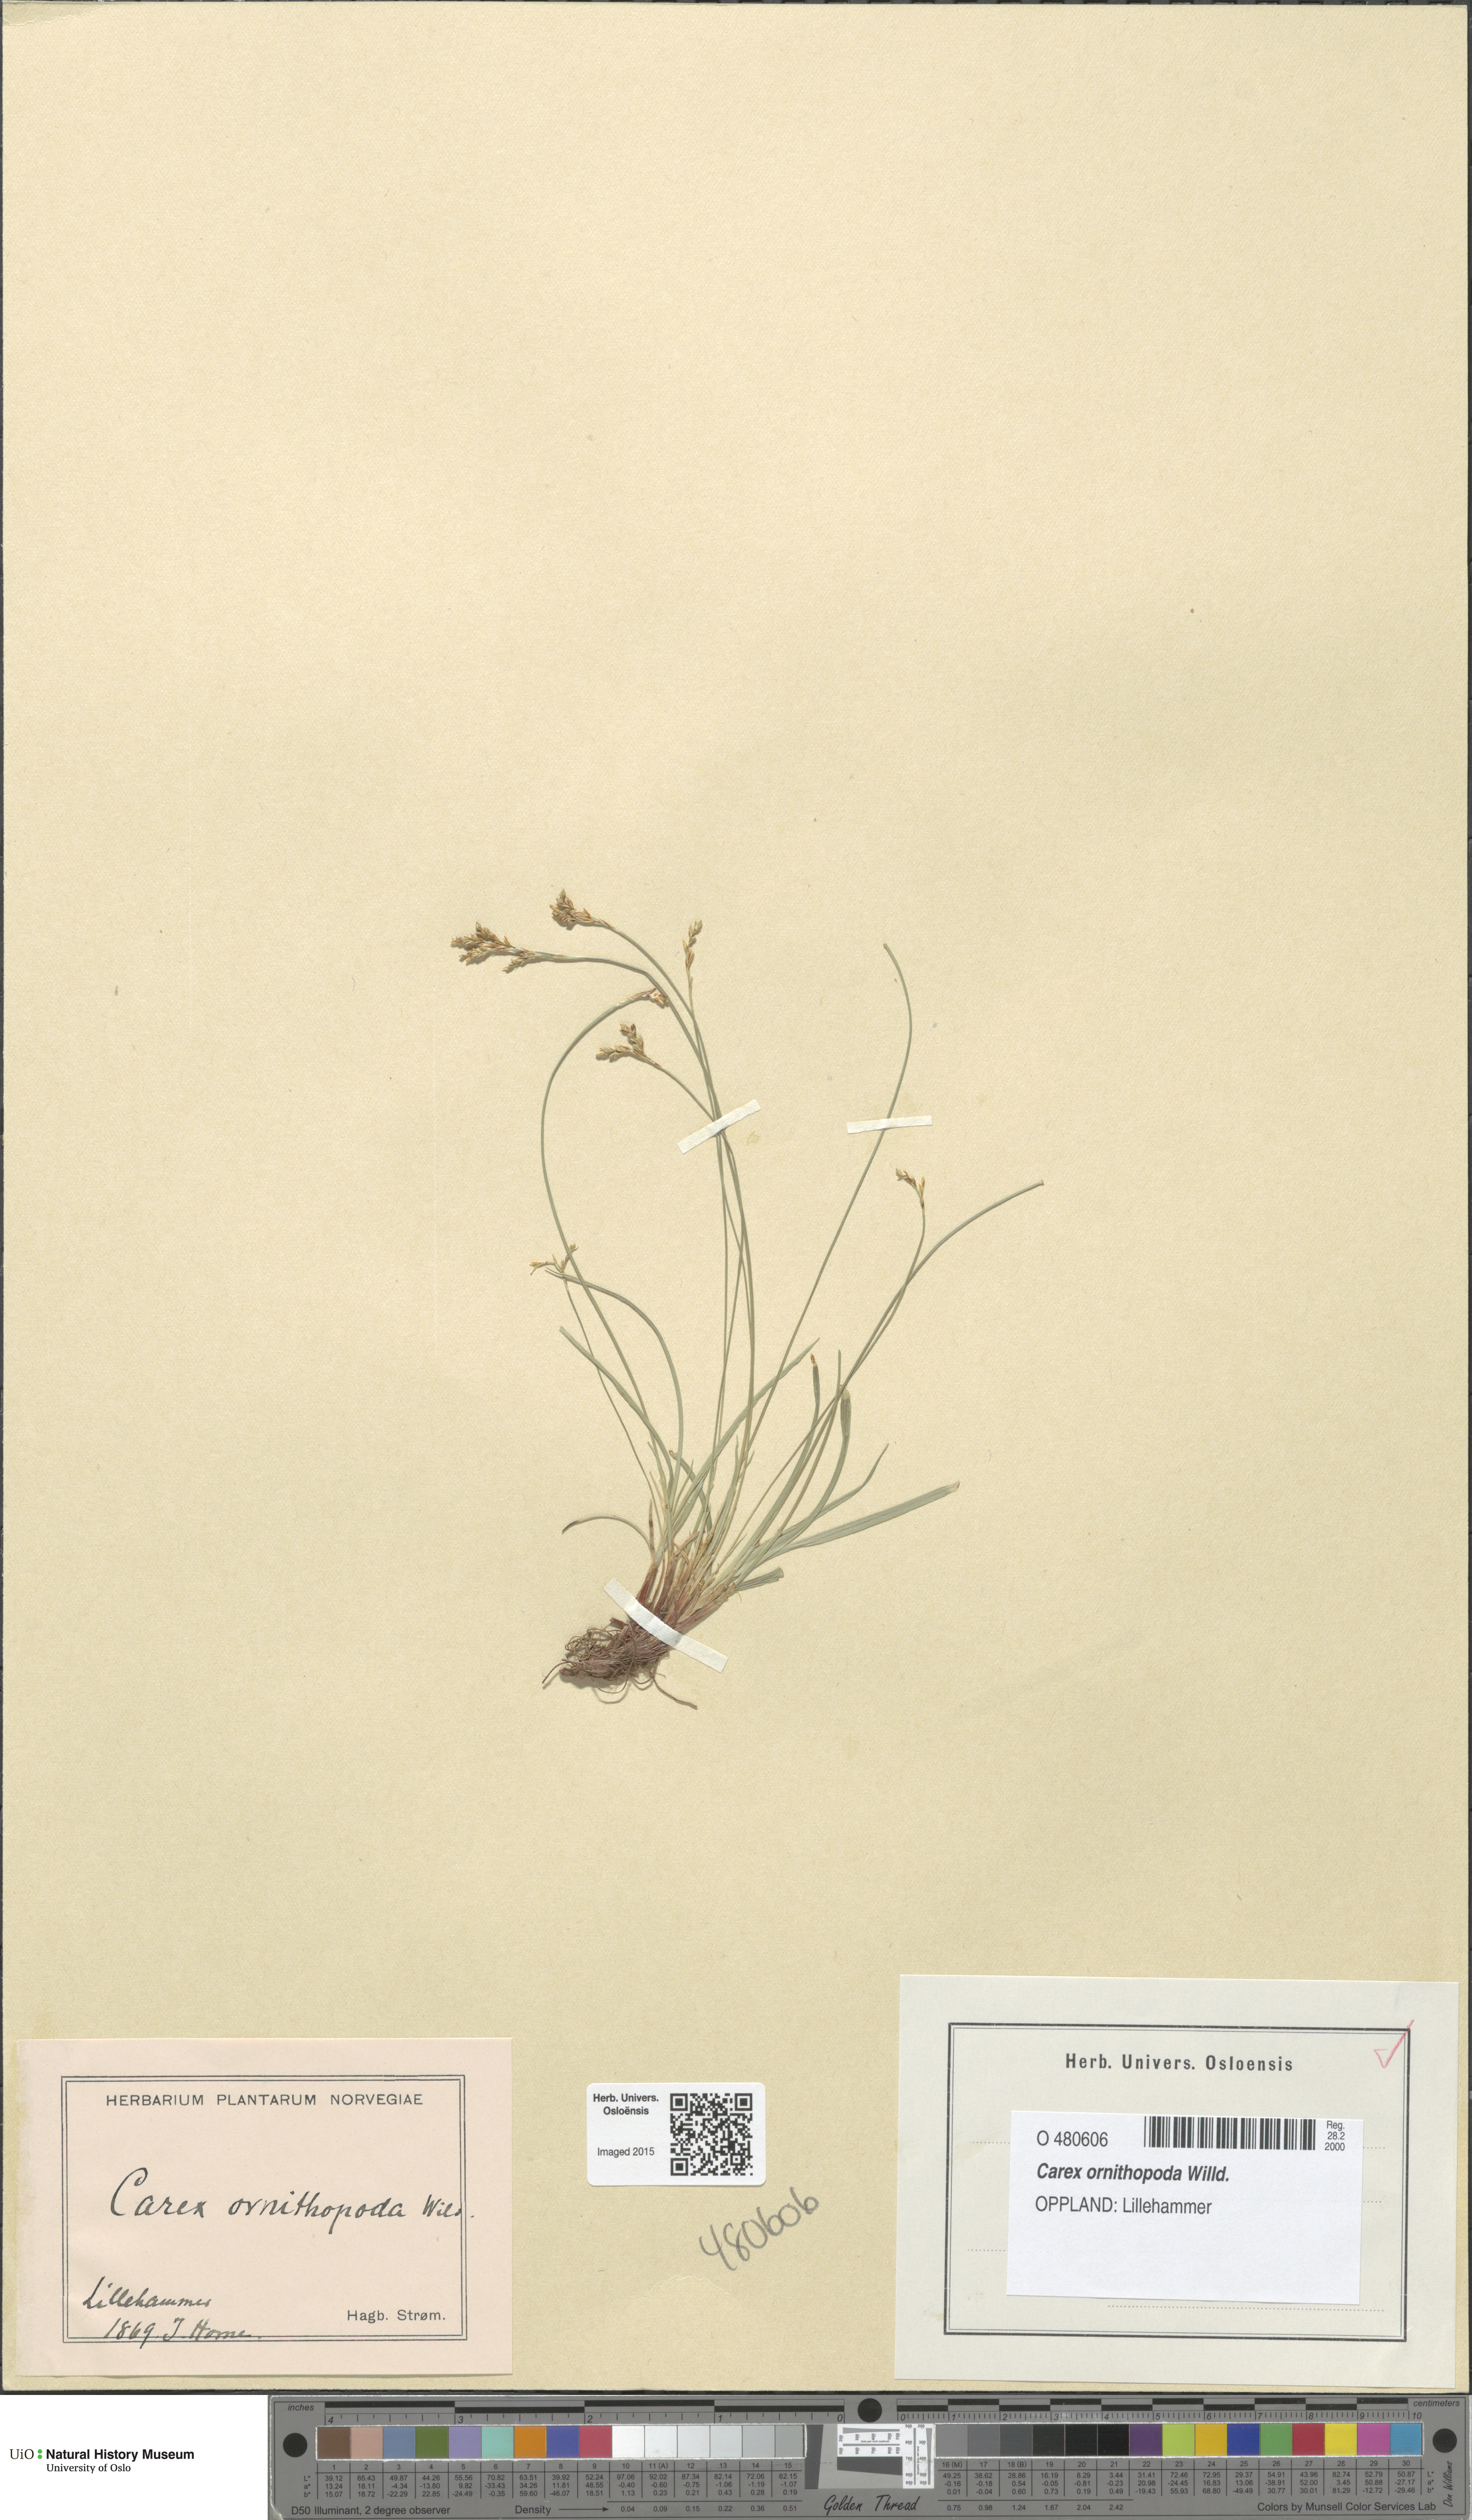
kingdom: Plantae
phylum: Tracheophyta
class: Liliopsida
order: Poales
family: Cyperaceae
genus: Carex
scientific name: Carex ornithopoda
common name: Bird's-foot sedge
